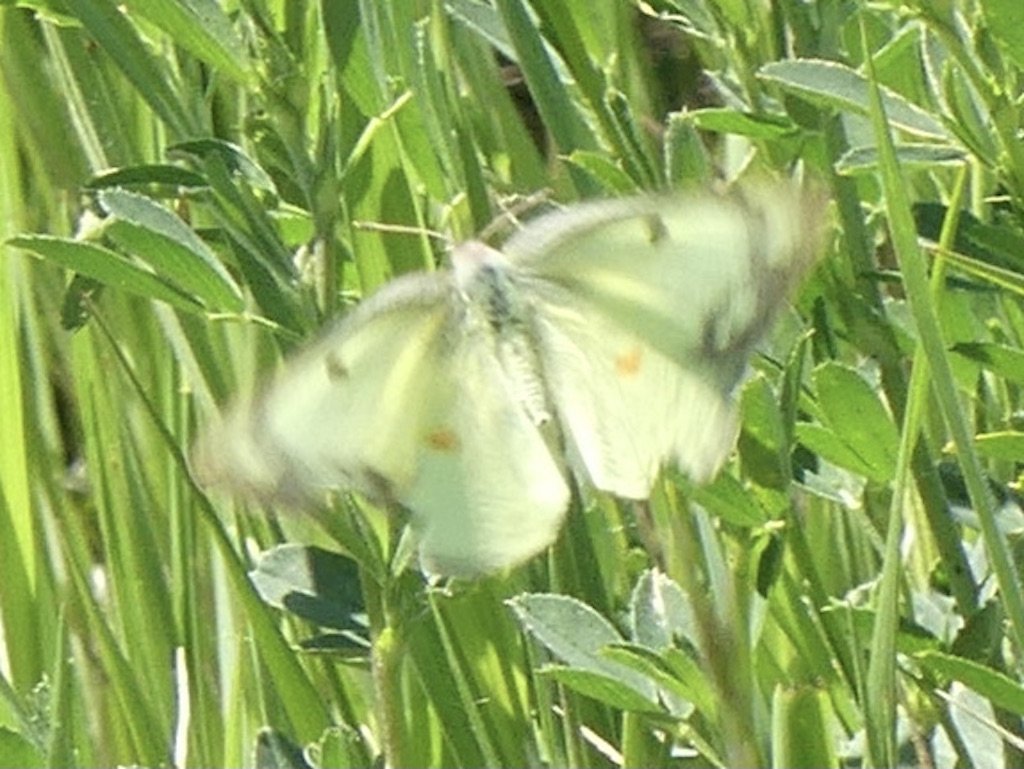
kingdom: Animalia
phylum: Arthropoda
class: Insecta
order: Lepidoptera
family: Pieridae
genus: Colias
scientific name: Colias philodice
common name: Clouded Sulphur
